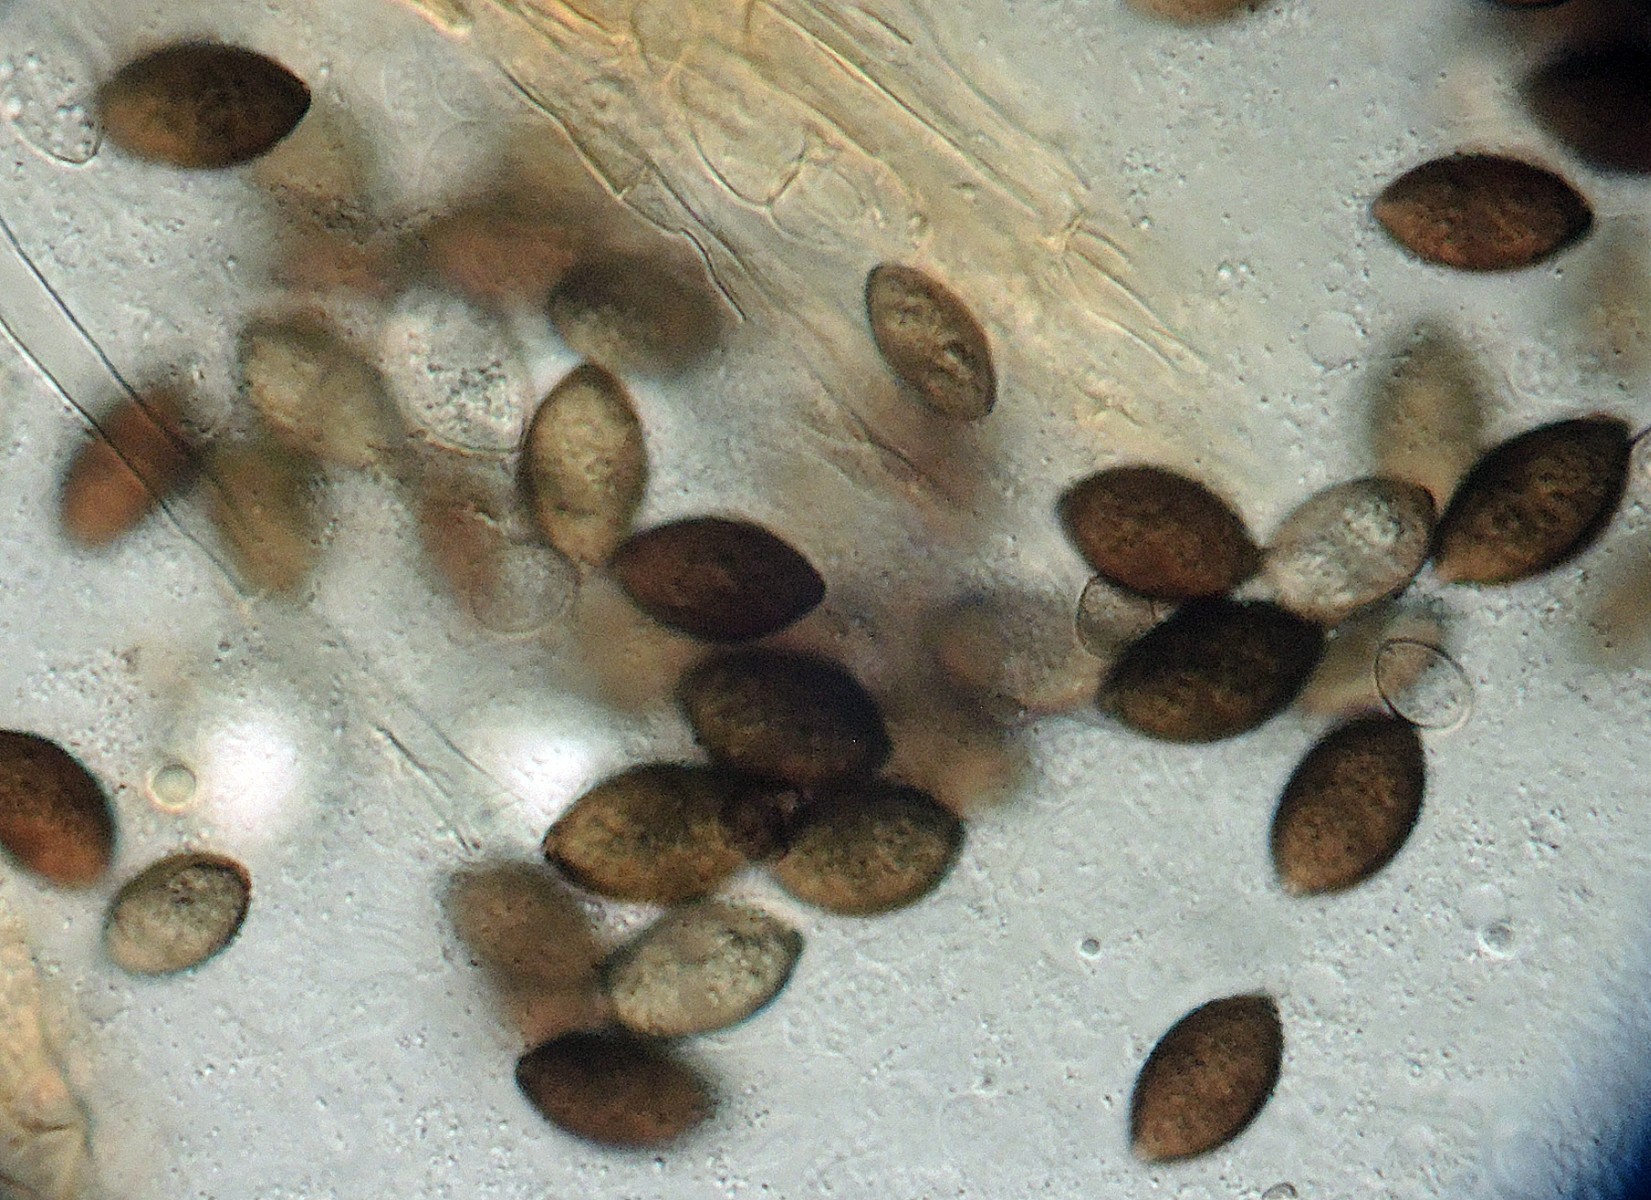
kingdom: Fungi
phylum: Ascomycota
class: Sordariomycetes
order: Melanosporales
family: Ceratostomataceae
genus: Microthecium
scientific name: Microthecium brevirostre
